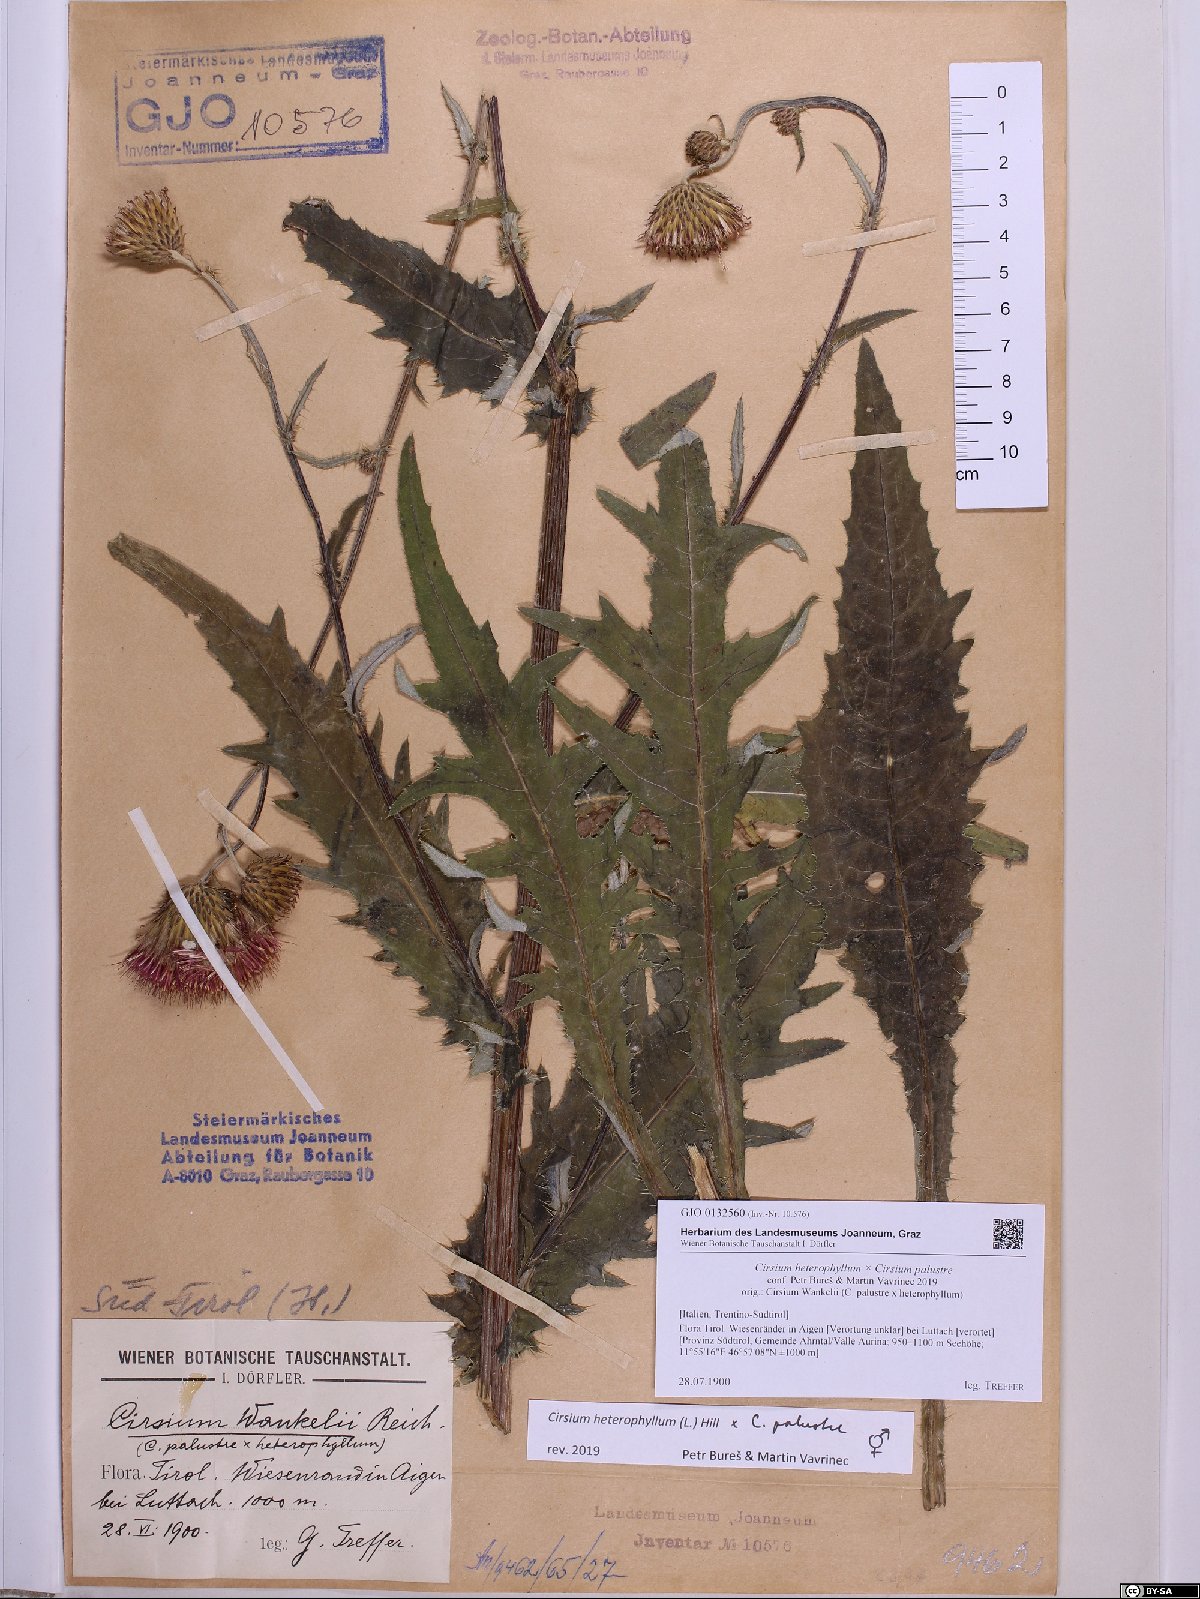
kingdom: Plantae
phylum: Tracheophyta
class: Magnoliopsida
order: Asterales
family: Asteraceae
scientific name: Asteraceae
